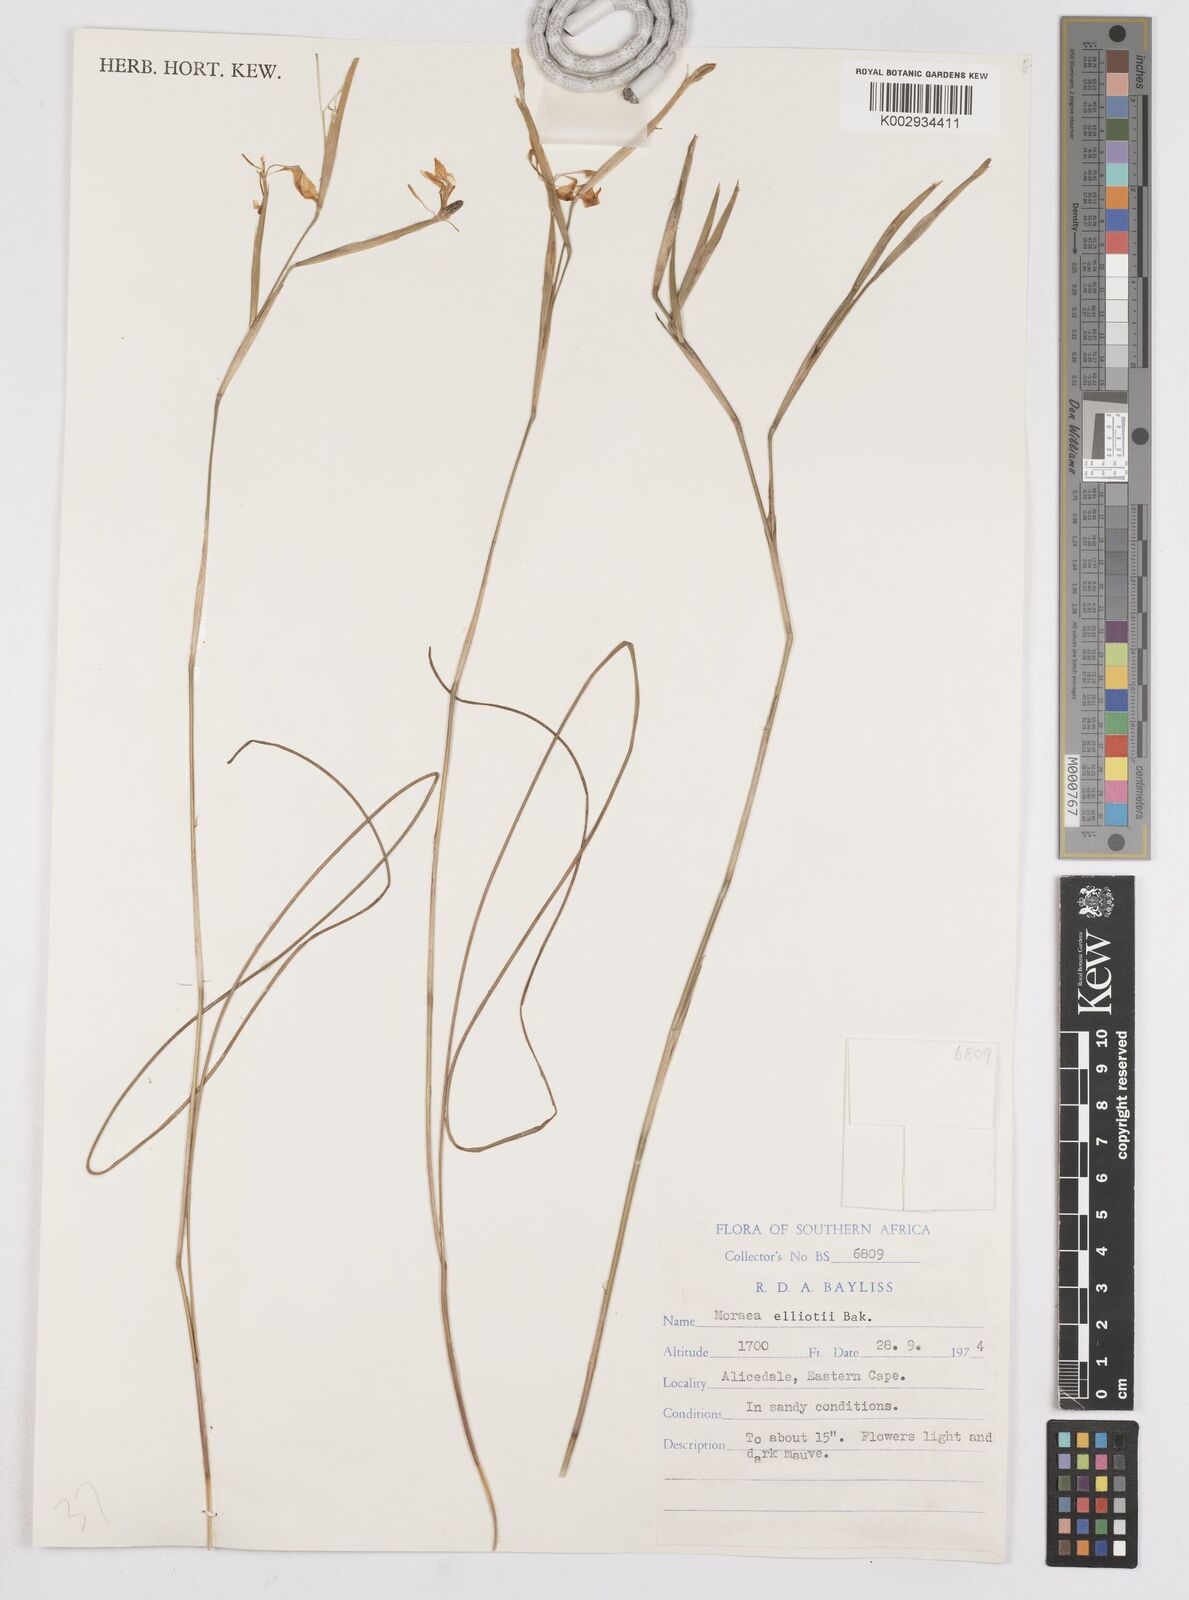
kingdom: Plantae
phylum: Tracheophyta
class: Liliopsida
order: Asparagales
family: Iridaceae
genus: Moraea
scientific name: Moraea elliotii
